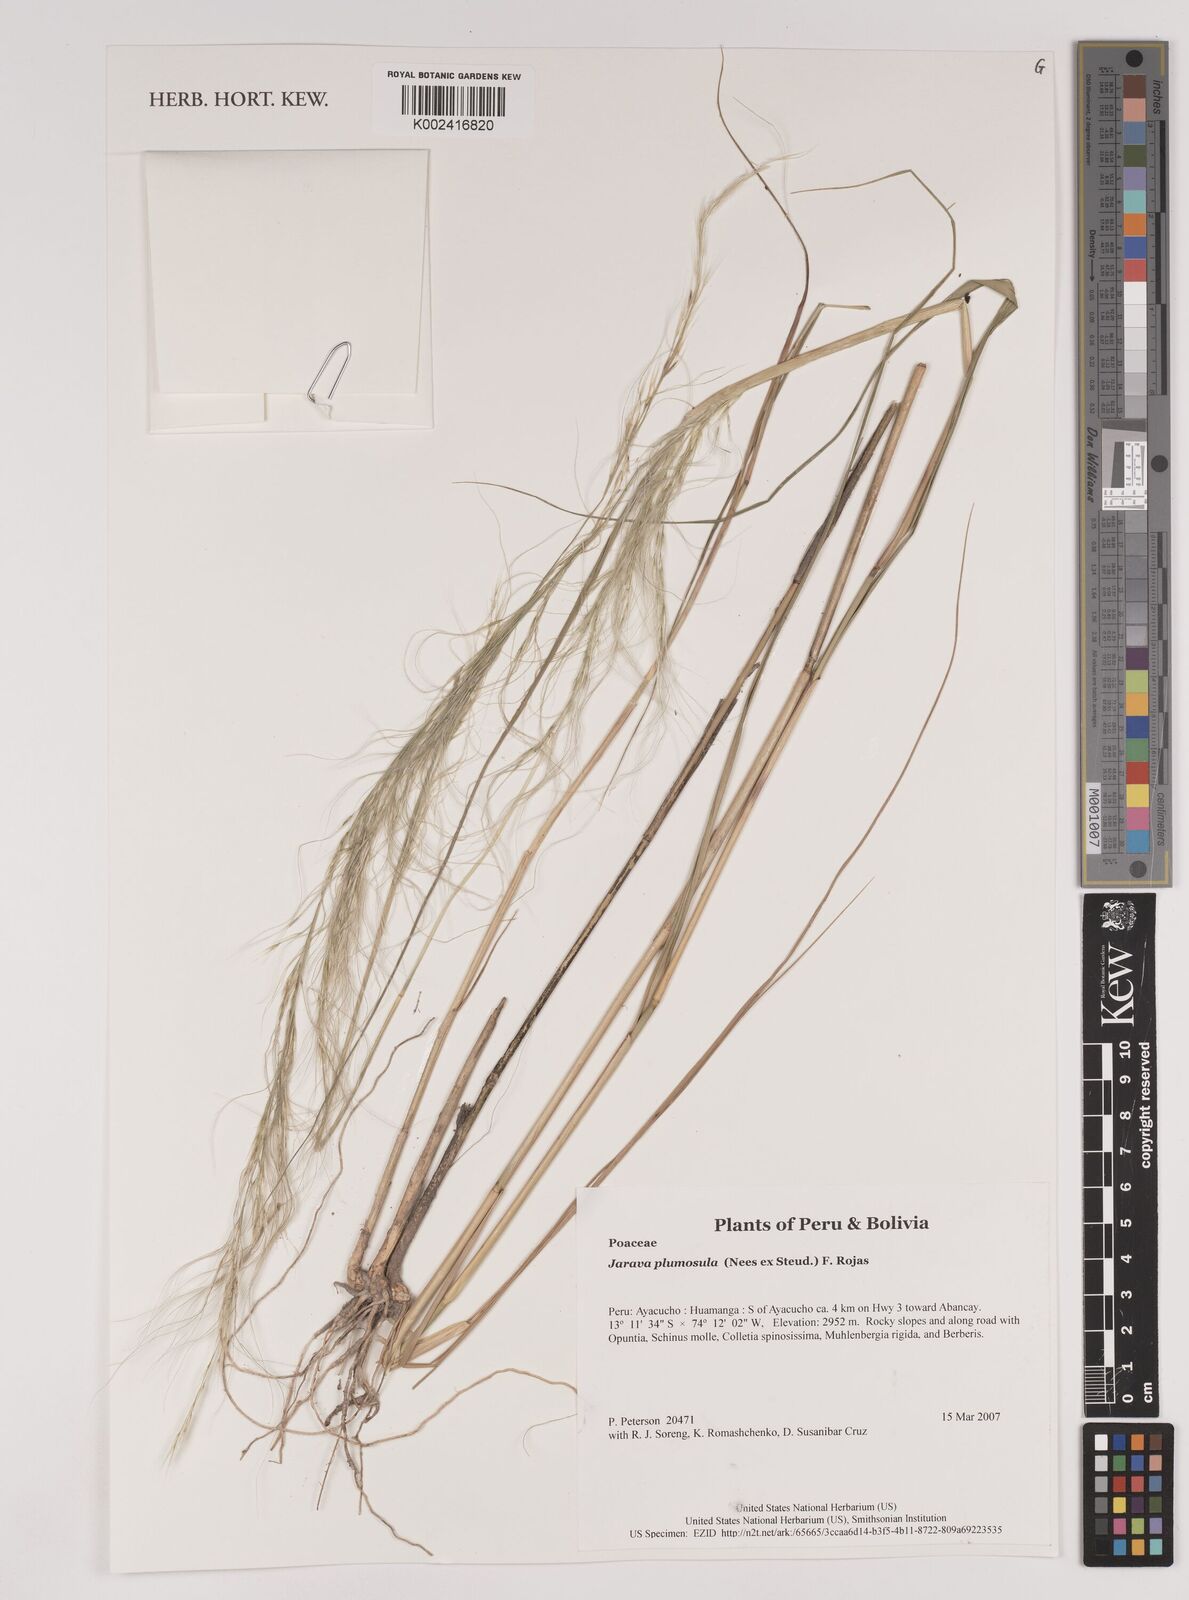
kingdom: Plantae
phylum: Tracheophyta
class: Liliopsida
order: Poales
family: Poaceae
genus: Stipa
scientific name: Stipa plumosa
